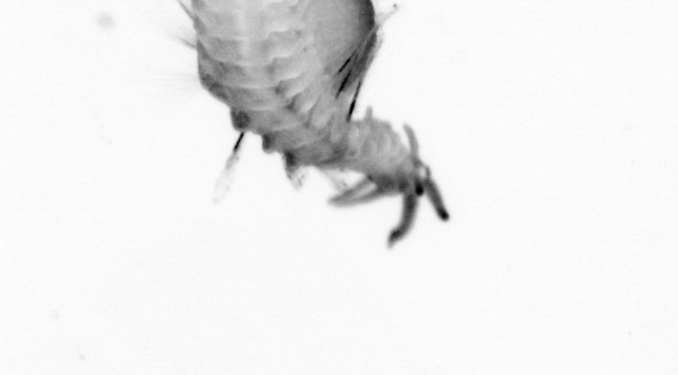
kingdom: Animalia
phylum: Annelida
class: Polychaeta
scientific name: Polychaeta
